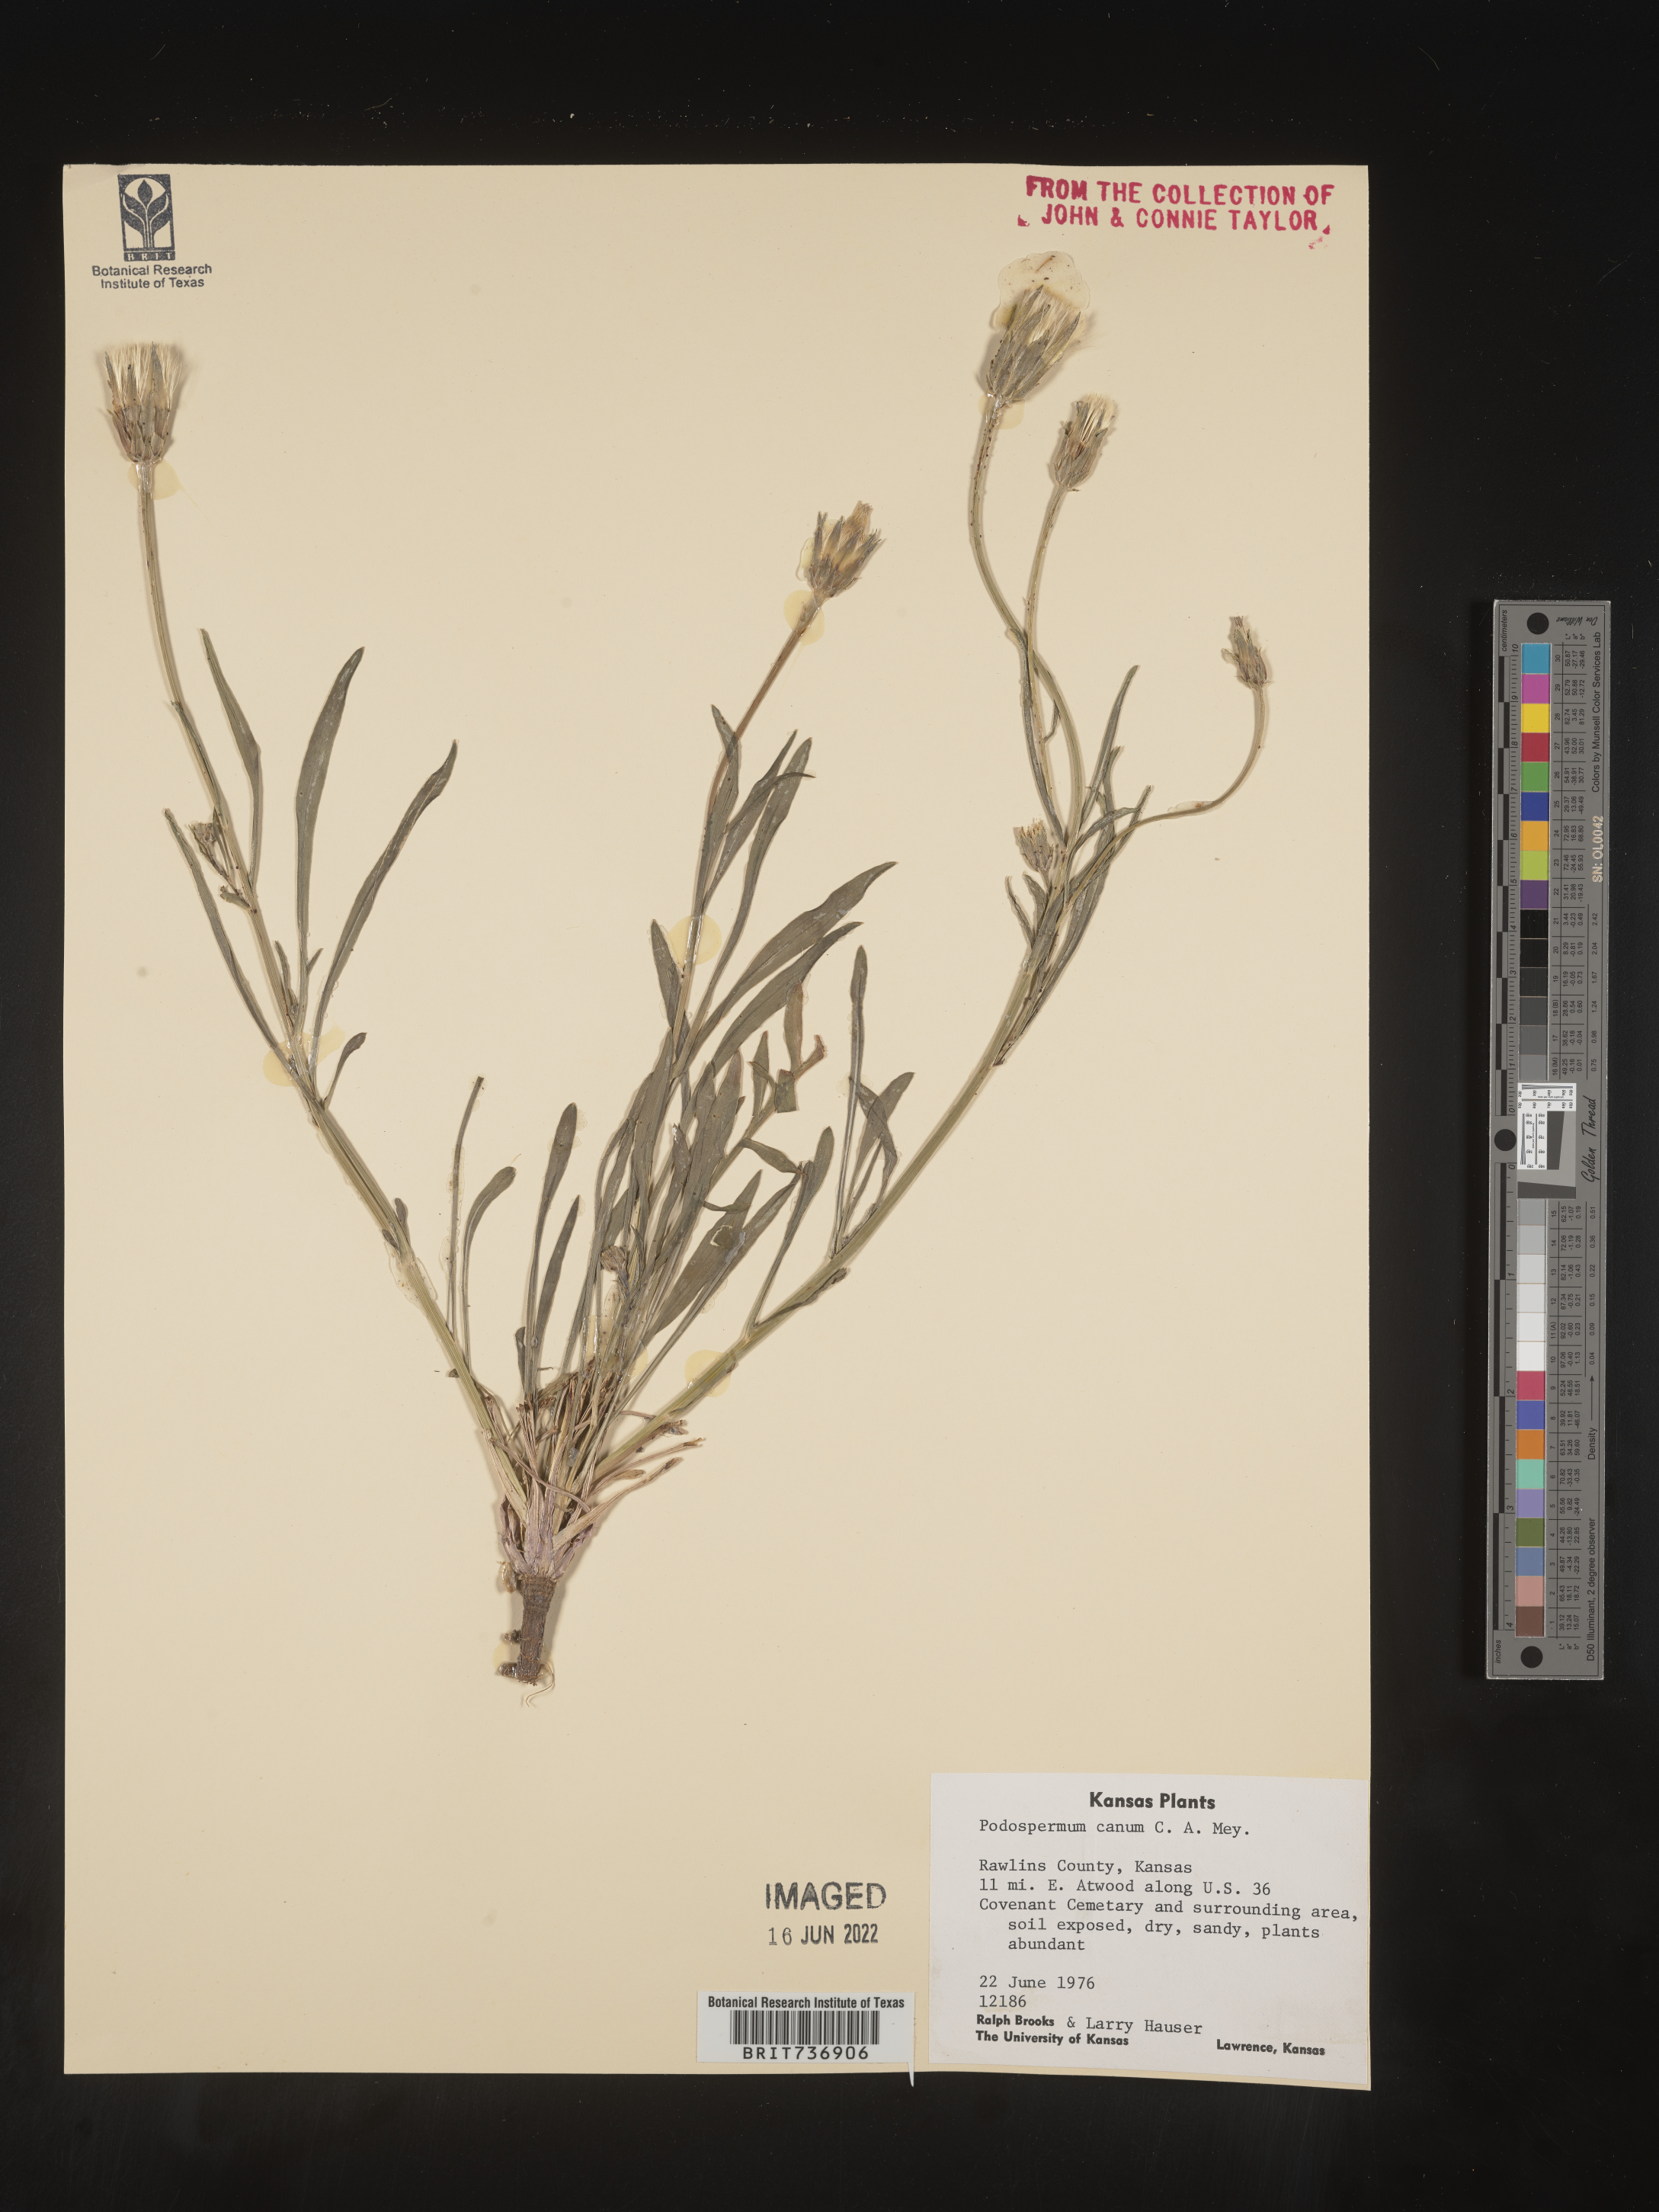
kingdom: Plantae
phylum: Tracheophyta
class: Magnoliopsida
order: Asterales
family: Asteraceae
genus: Scorzonera
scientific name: Scorzonera
